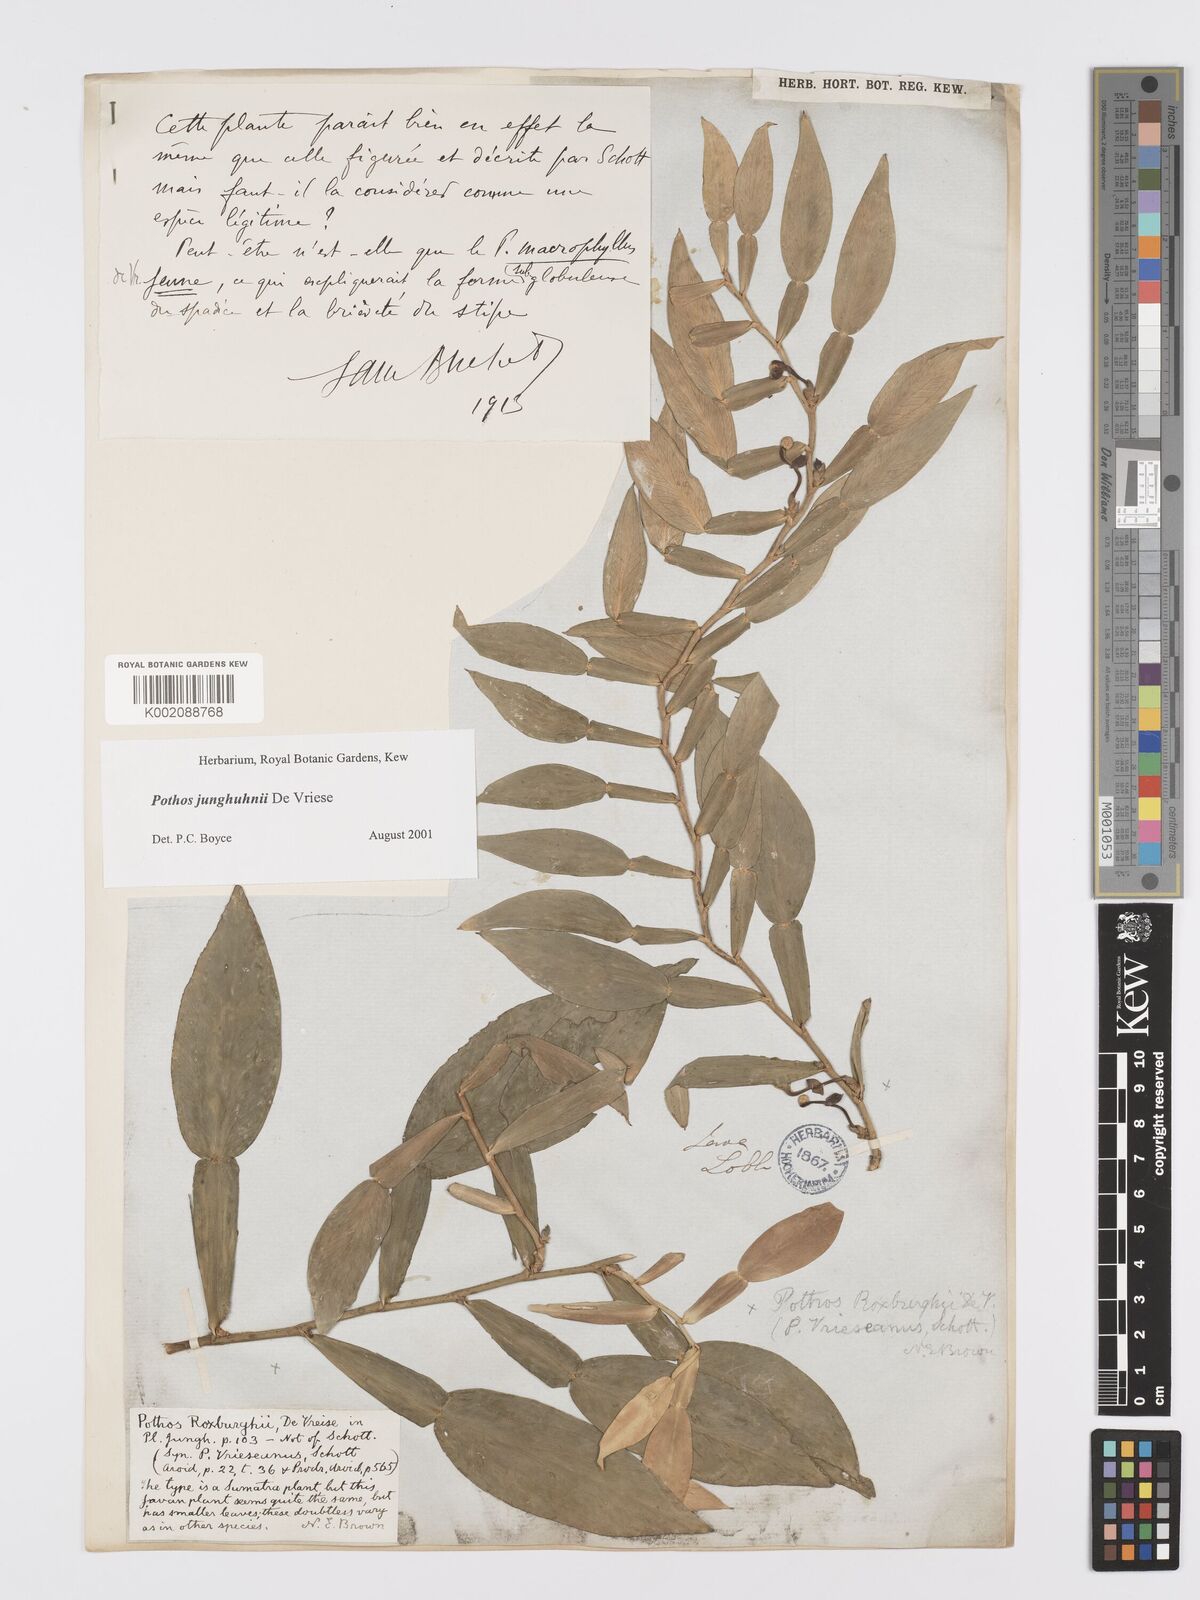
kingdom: Plantae
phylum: Tracheophyta
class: Liliopsida
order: Alismatales
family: Araceae
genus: Pothos
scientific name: Pothos junghuhnii
